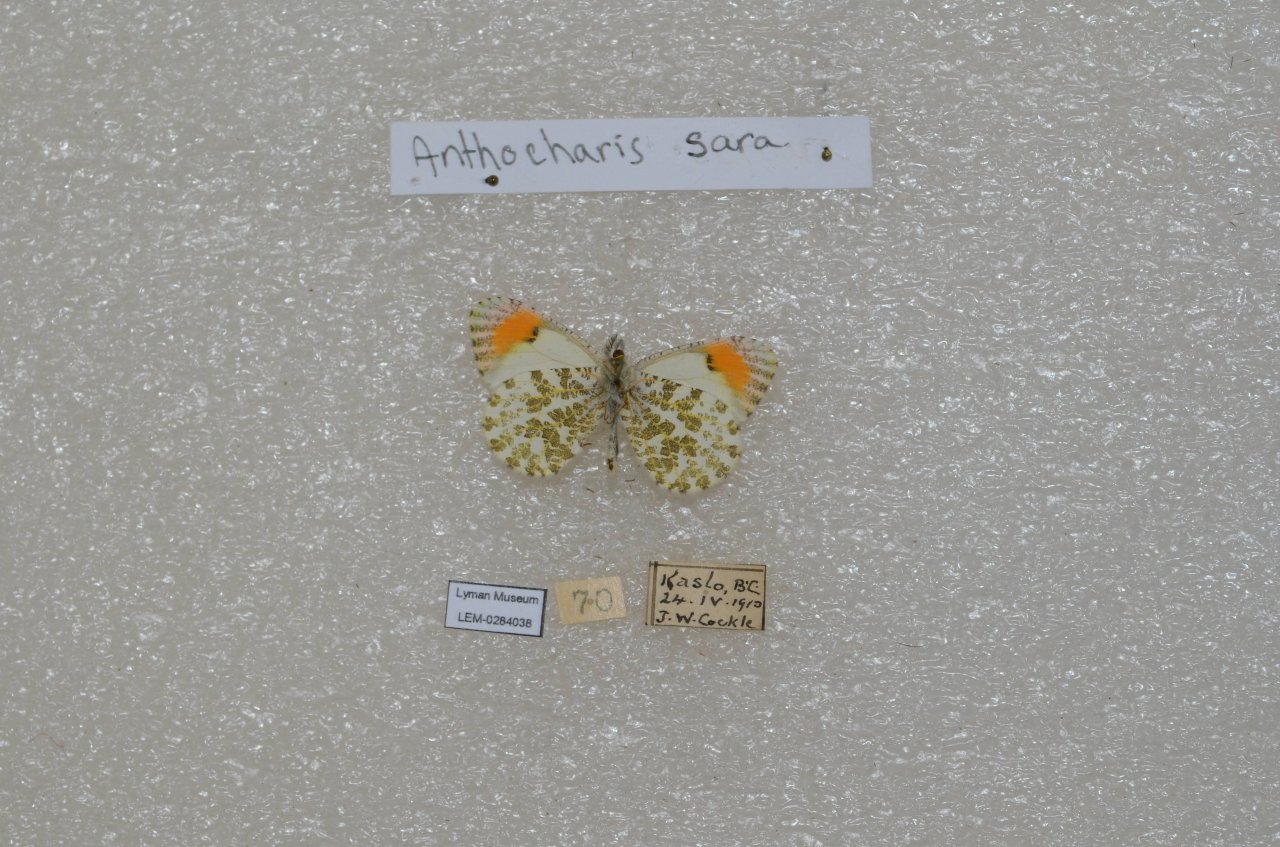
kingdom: Animalia
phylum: Arthropoda
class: Insecta
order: Lepidoptera
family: Pieridae
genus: Anthocharis
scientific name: Anthocharis sara
